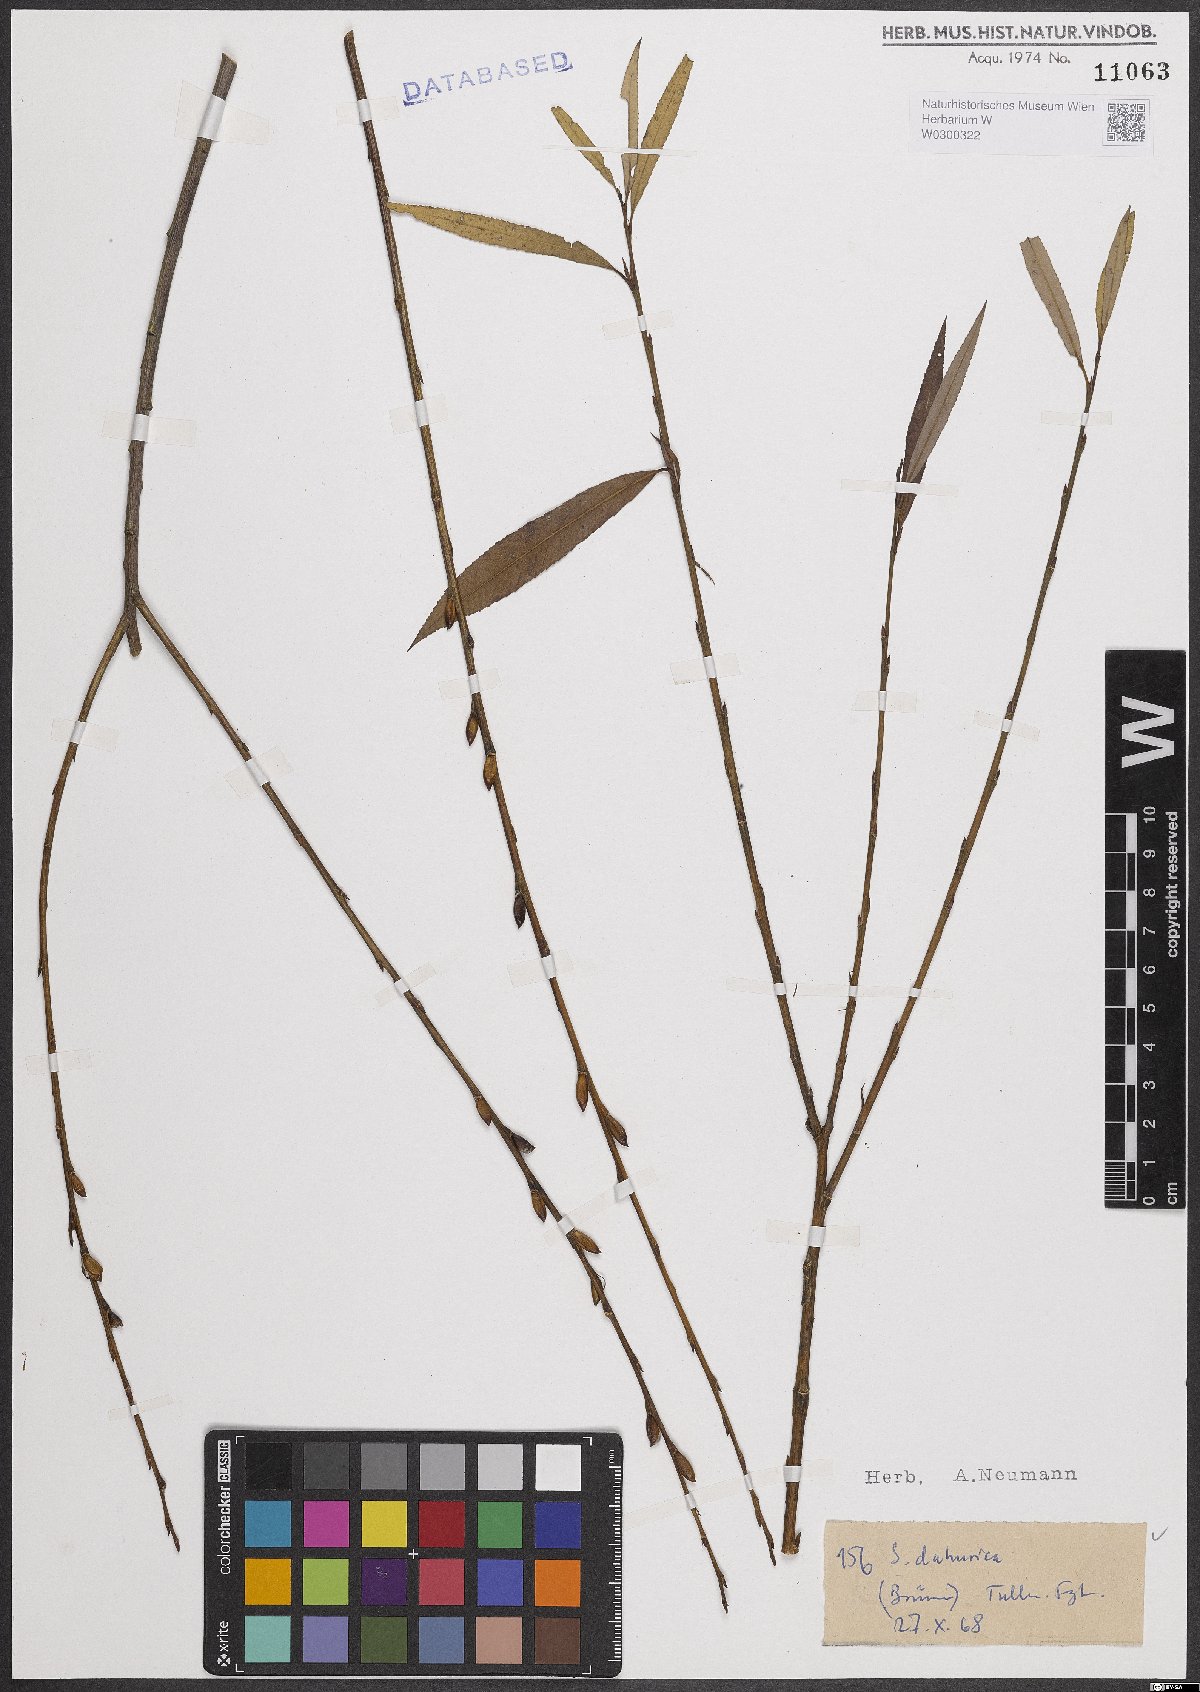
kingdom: Plantae
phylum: Tracheophyta
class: Magnoliopsida
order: Malpighiales
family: Salicaceae
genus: Salix
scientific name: Salix purpurea
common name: Purple willow
